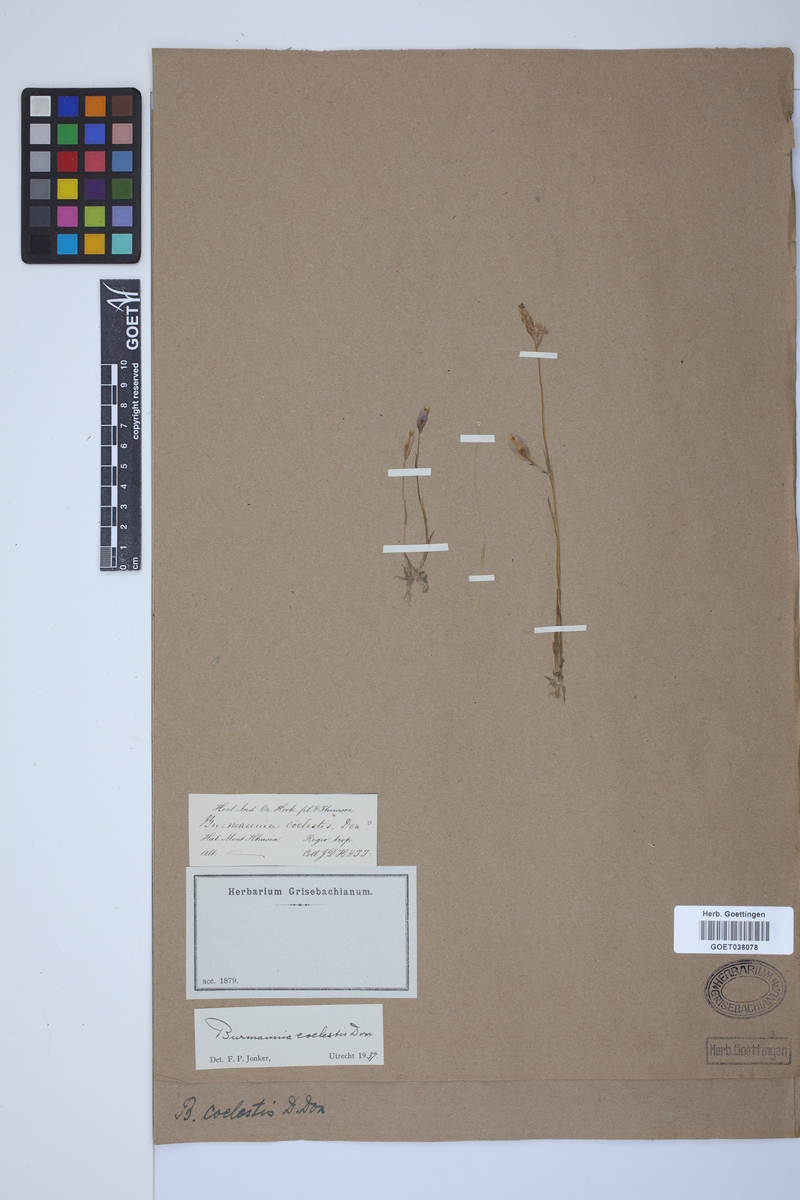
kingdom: Plantae
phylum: Tracheophyta
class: Liliopsida
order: Dioscoreales
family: Burmanniaceae
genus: Burmannia
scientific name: Burmannia coelestis
